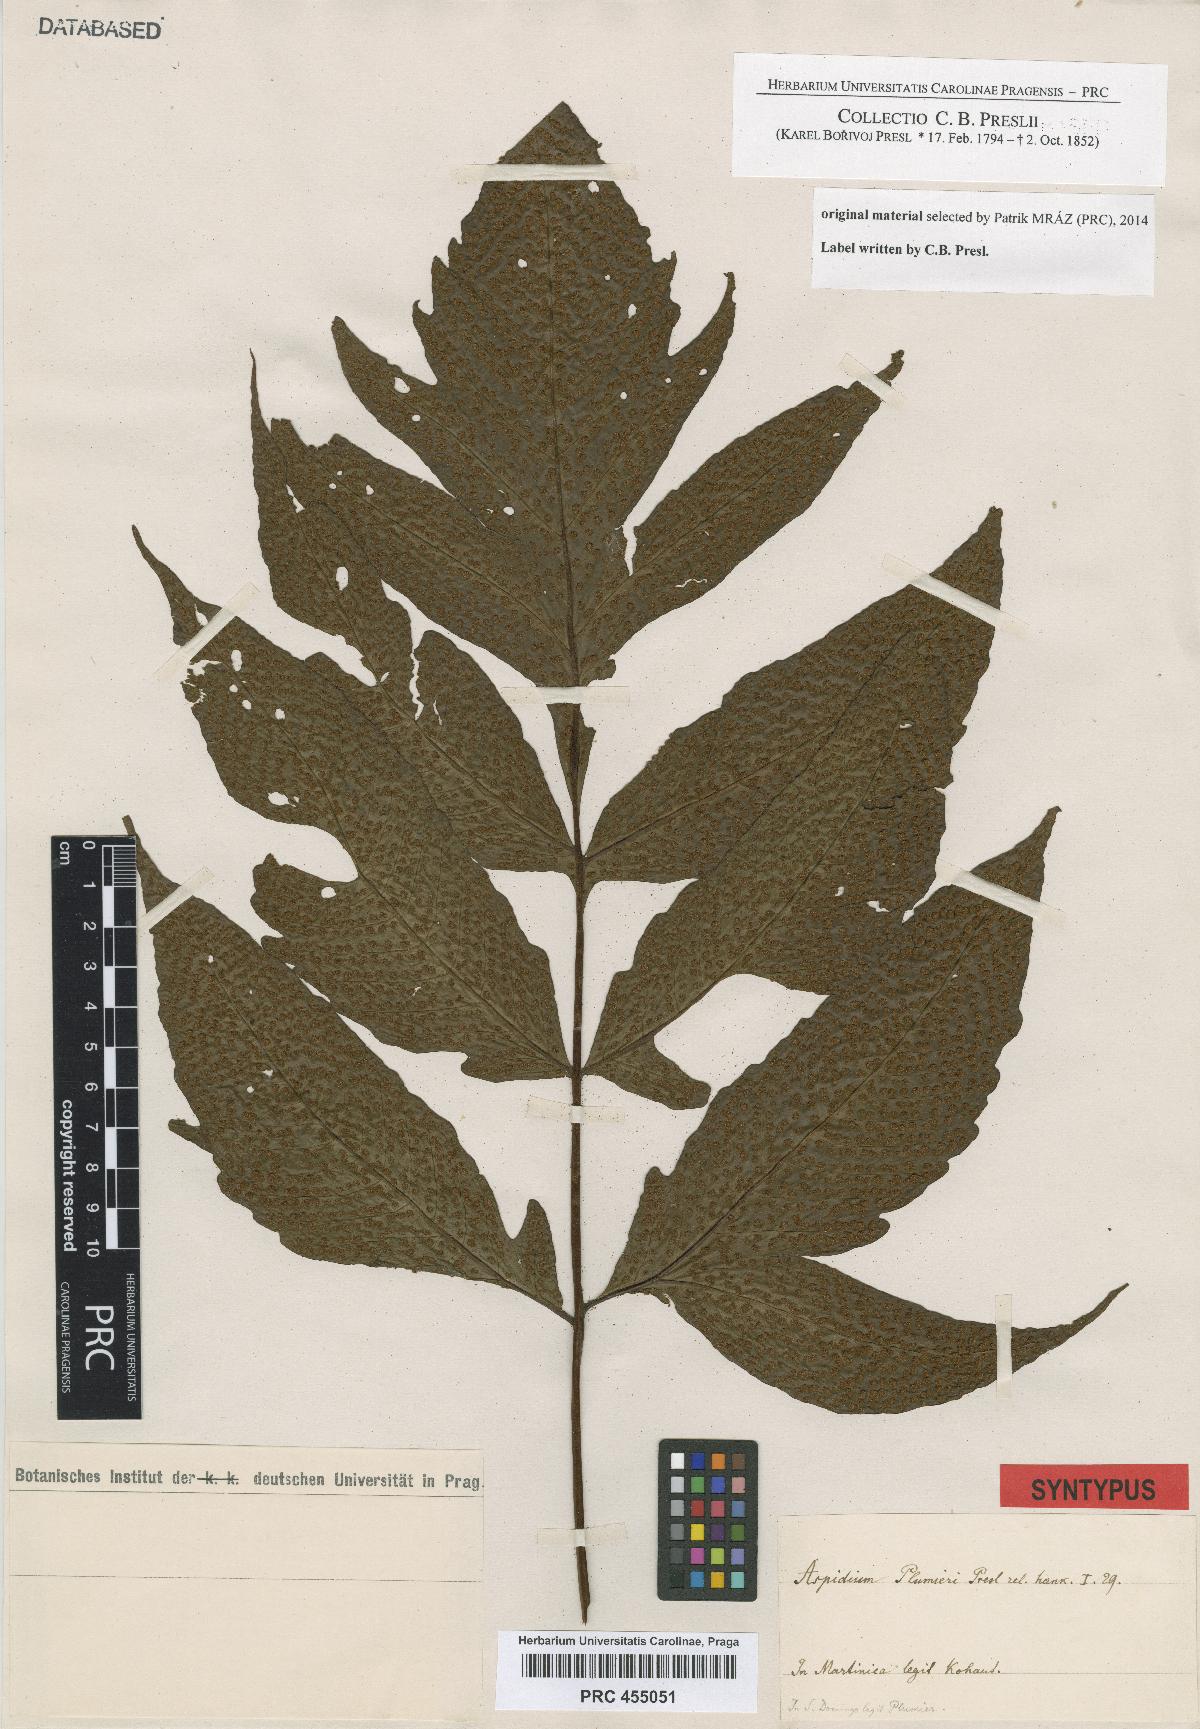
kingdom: Plantae
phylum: Tracheophyta
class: Polypodiopsida
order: Polypodiales
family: Tectariaceae
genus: Tectaria
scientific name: Tectaria trifoliata
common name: Threeleaf halberd fern
